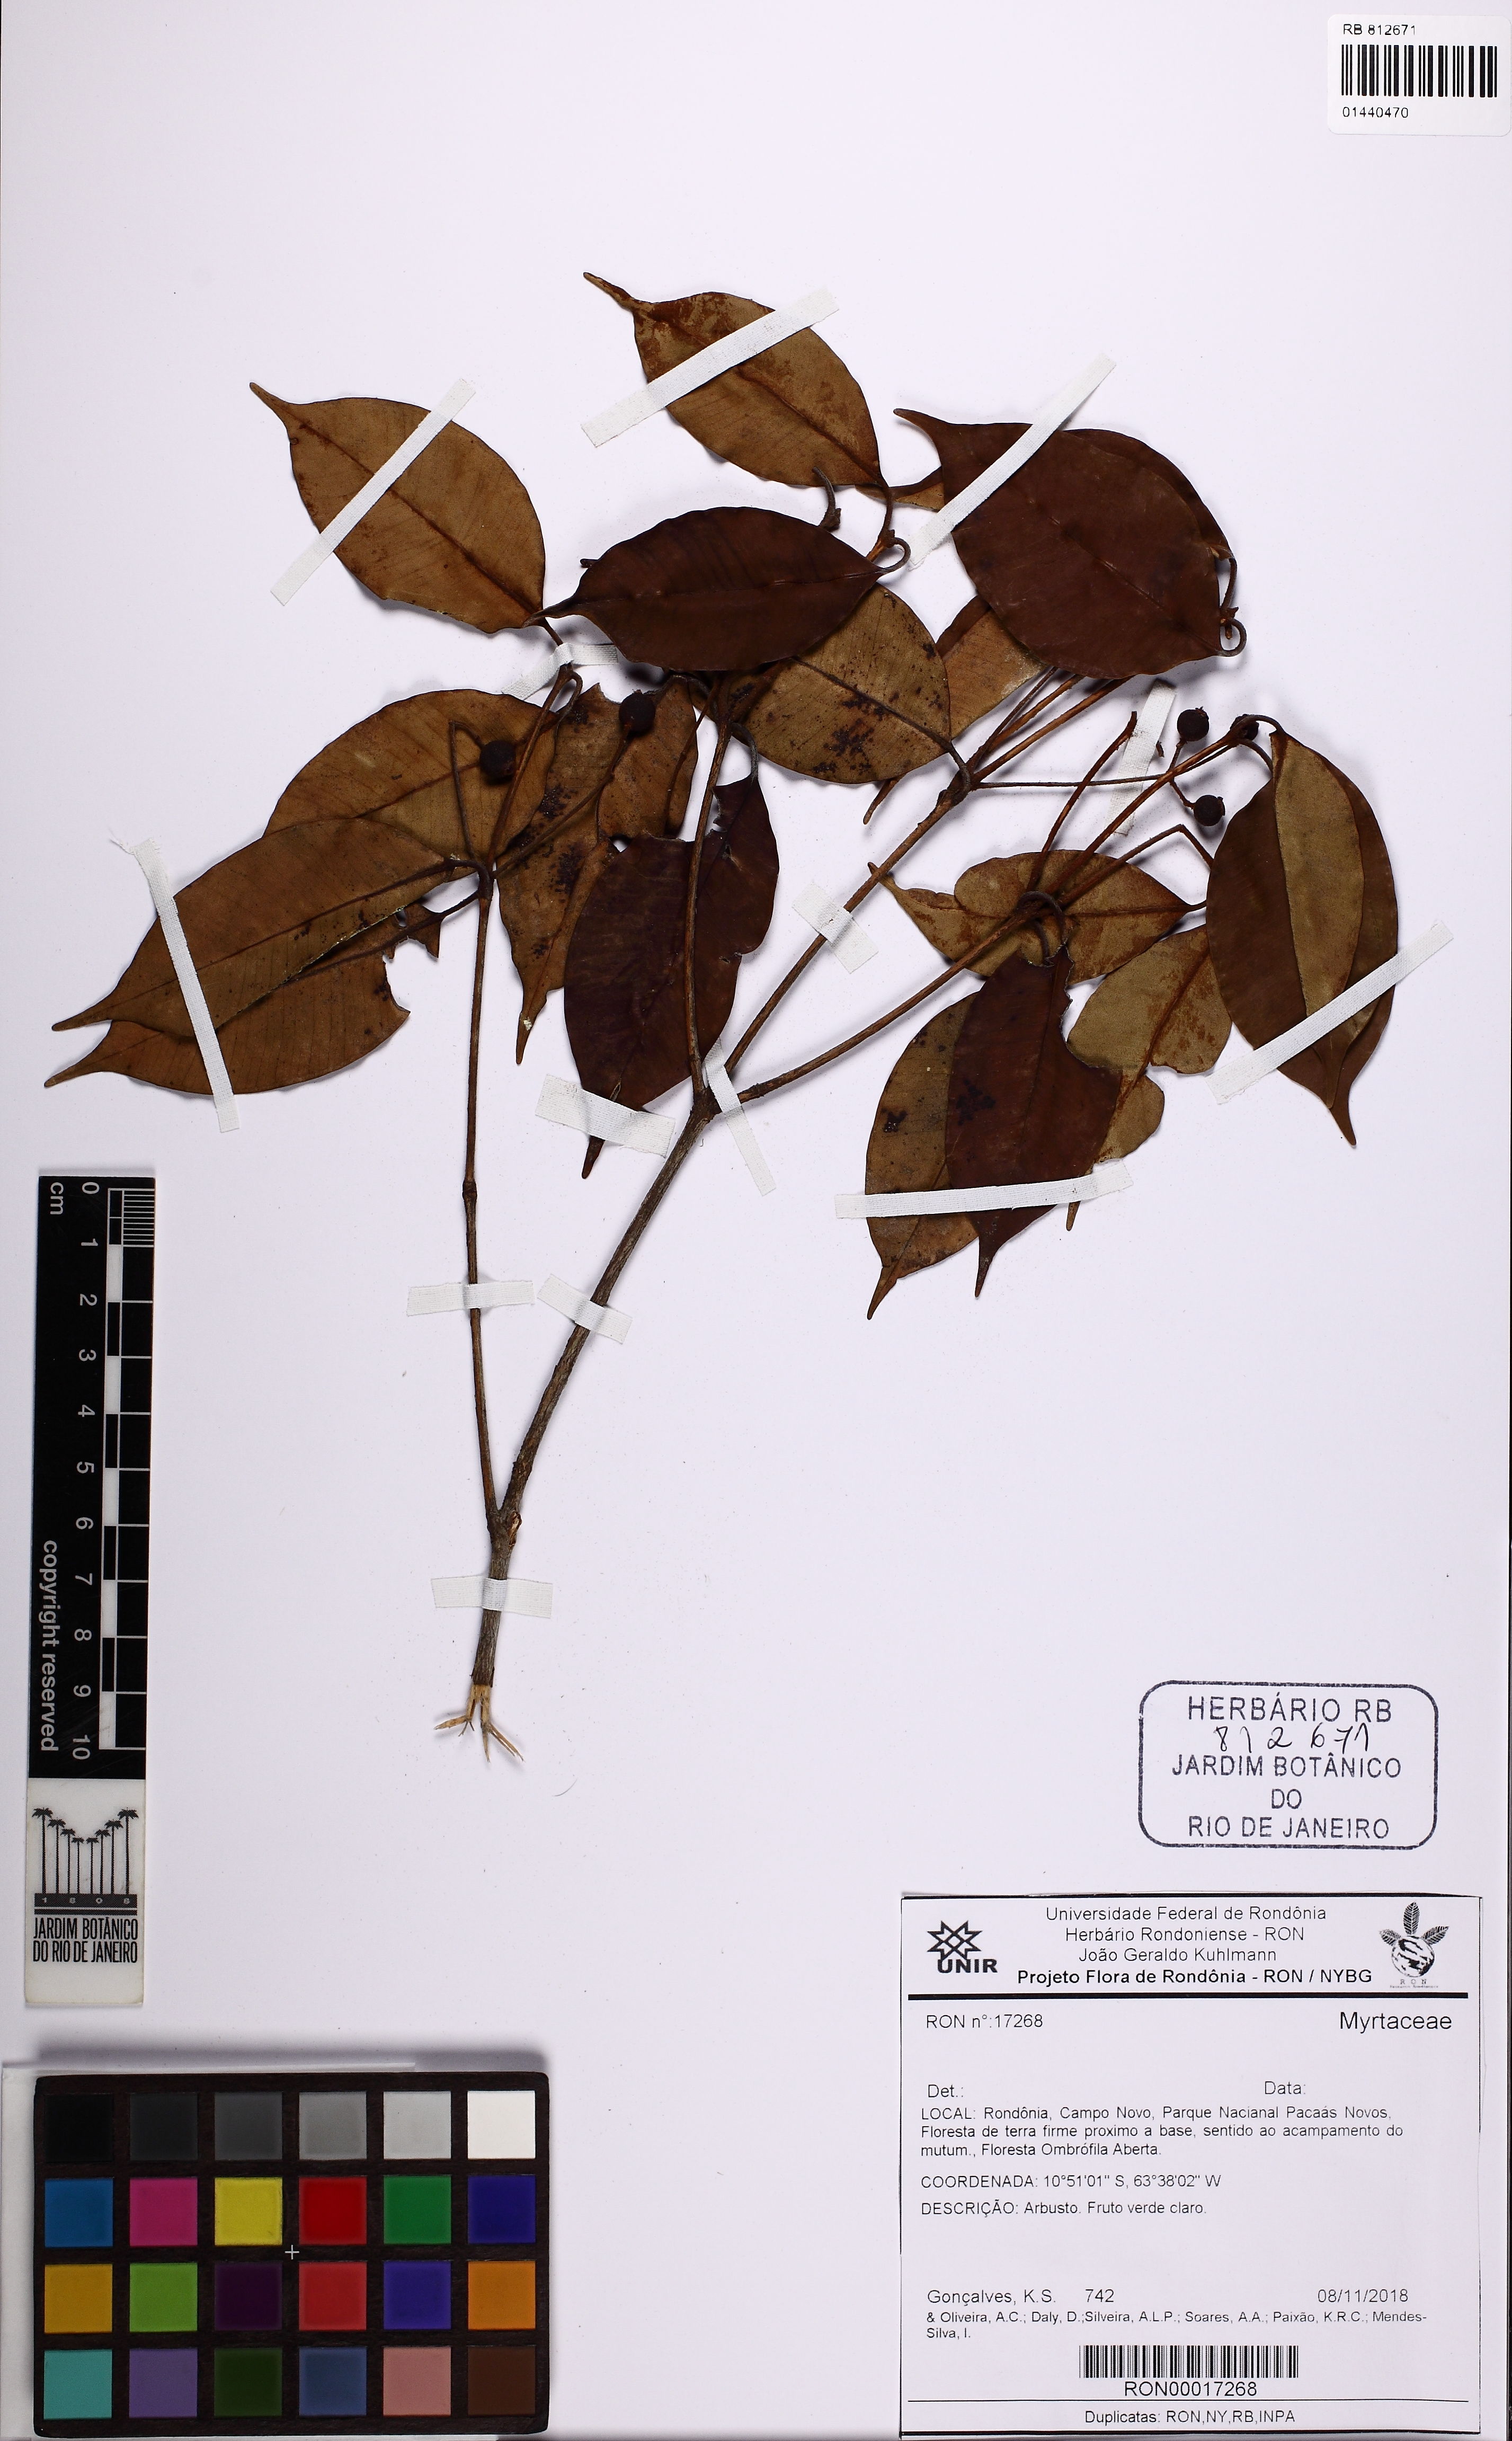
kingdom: Plantae
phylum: Tracheophyta
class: Magnoliopsida
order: Myrtales
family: Myrtaceae
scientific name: Myrtaceae
